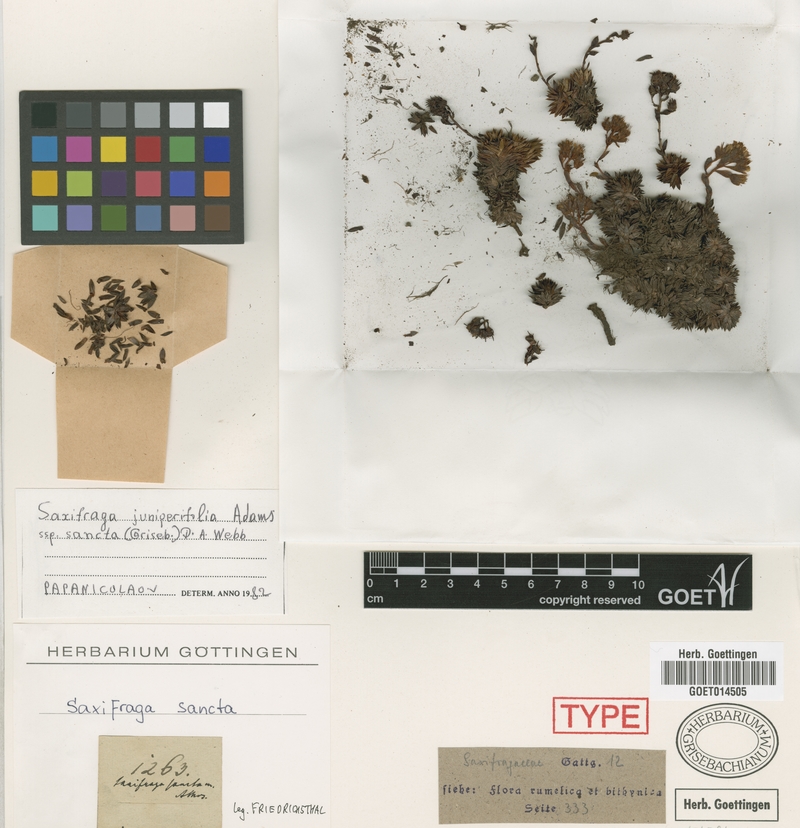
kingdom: Plantae
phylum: Tracheophyta
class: Magnoliopsida
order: Saxifragales
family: Saxifragaceae
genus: Saxifraga
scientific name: Saxifraga sancta
